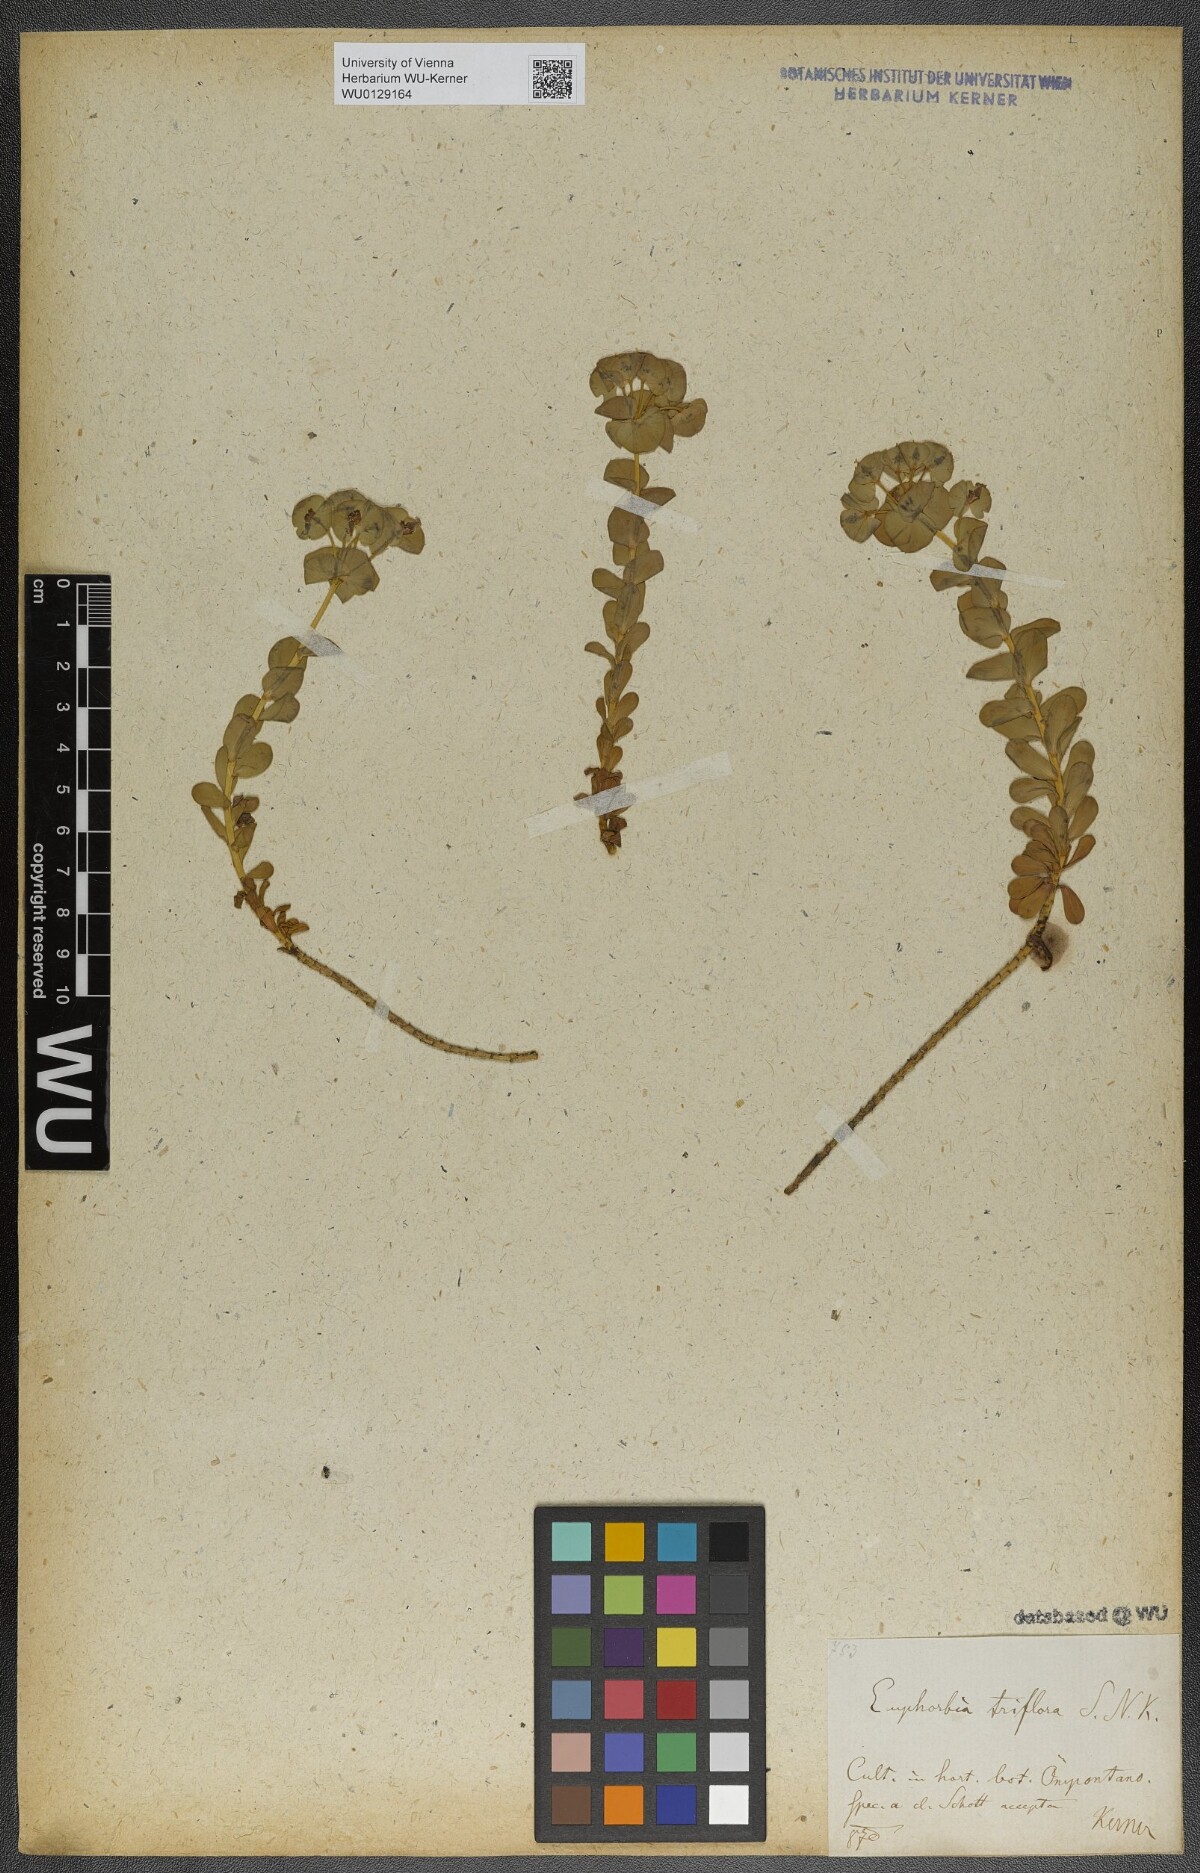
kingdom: Plantae
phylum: Tracheophyta
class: Magnoliopsida
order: Malpighiales
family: Euphorbiaceae
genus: Euphorbia
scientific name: Euphorbia triflora
